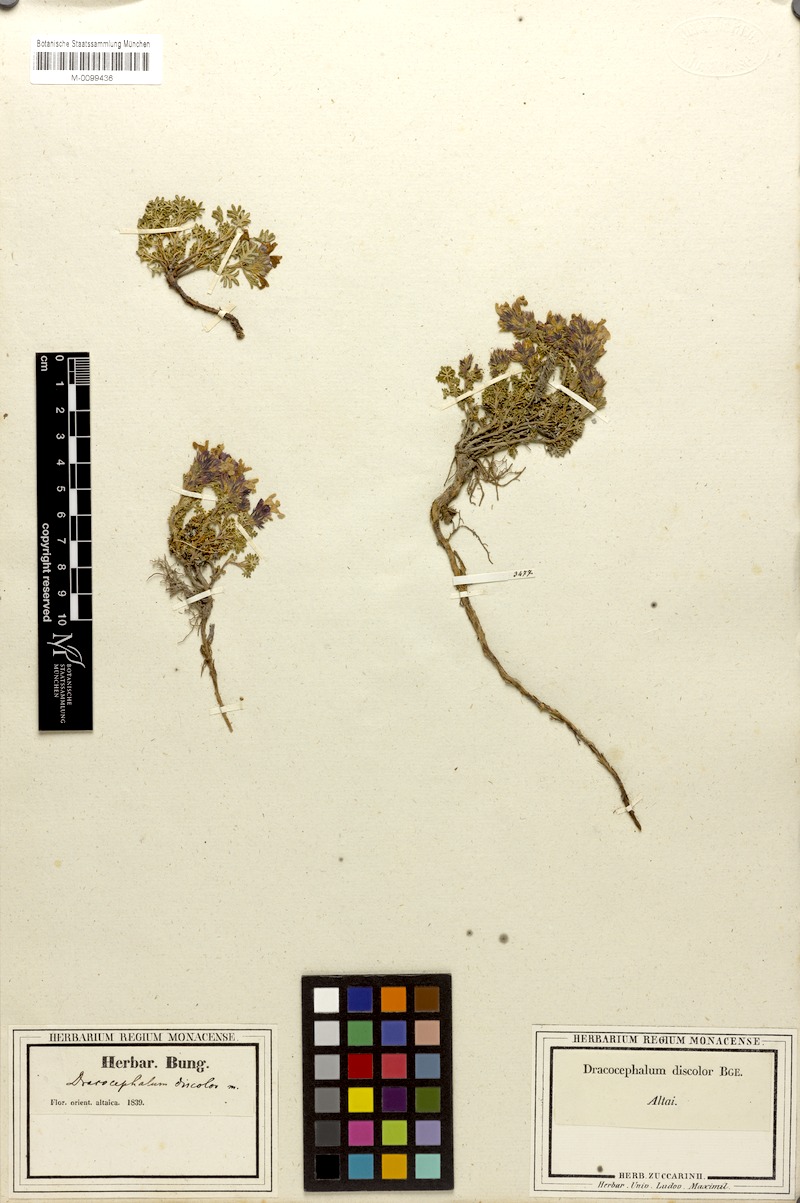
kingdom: Plantae
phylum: Tracheophyta
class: Magnoliopsida
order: Lamiales
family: Lamiaceae
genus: Dracocephalum
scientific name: Dracocephalum discolor
